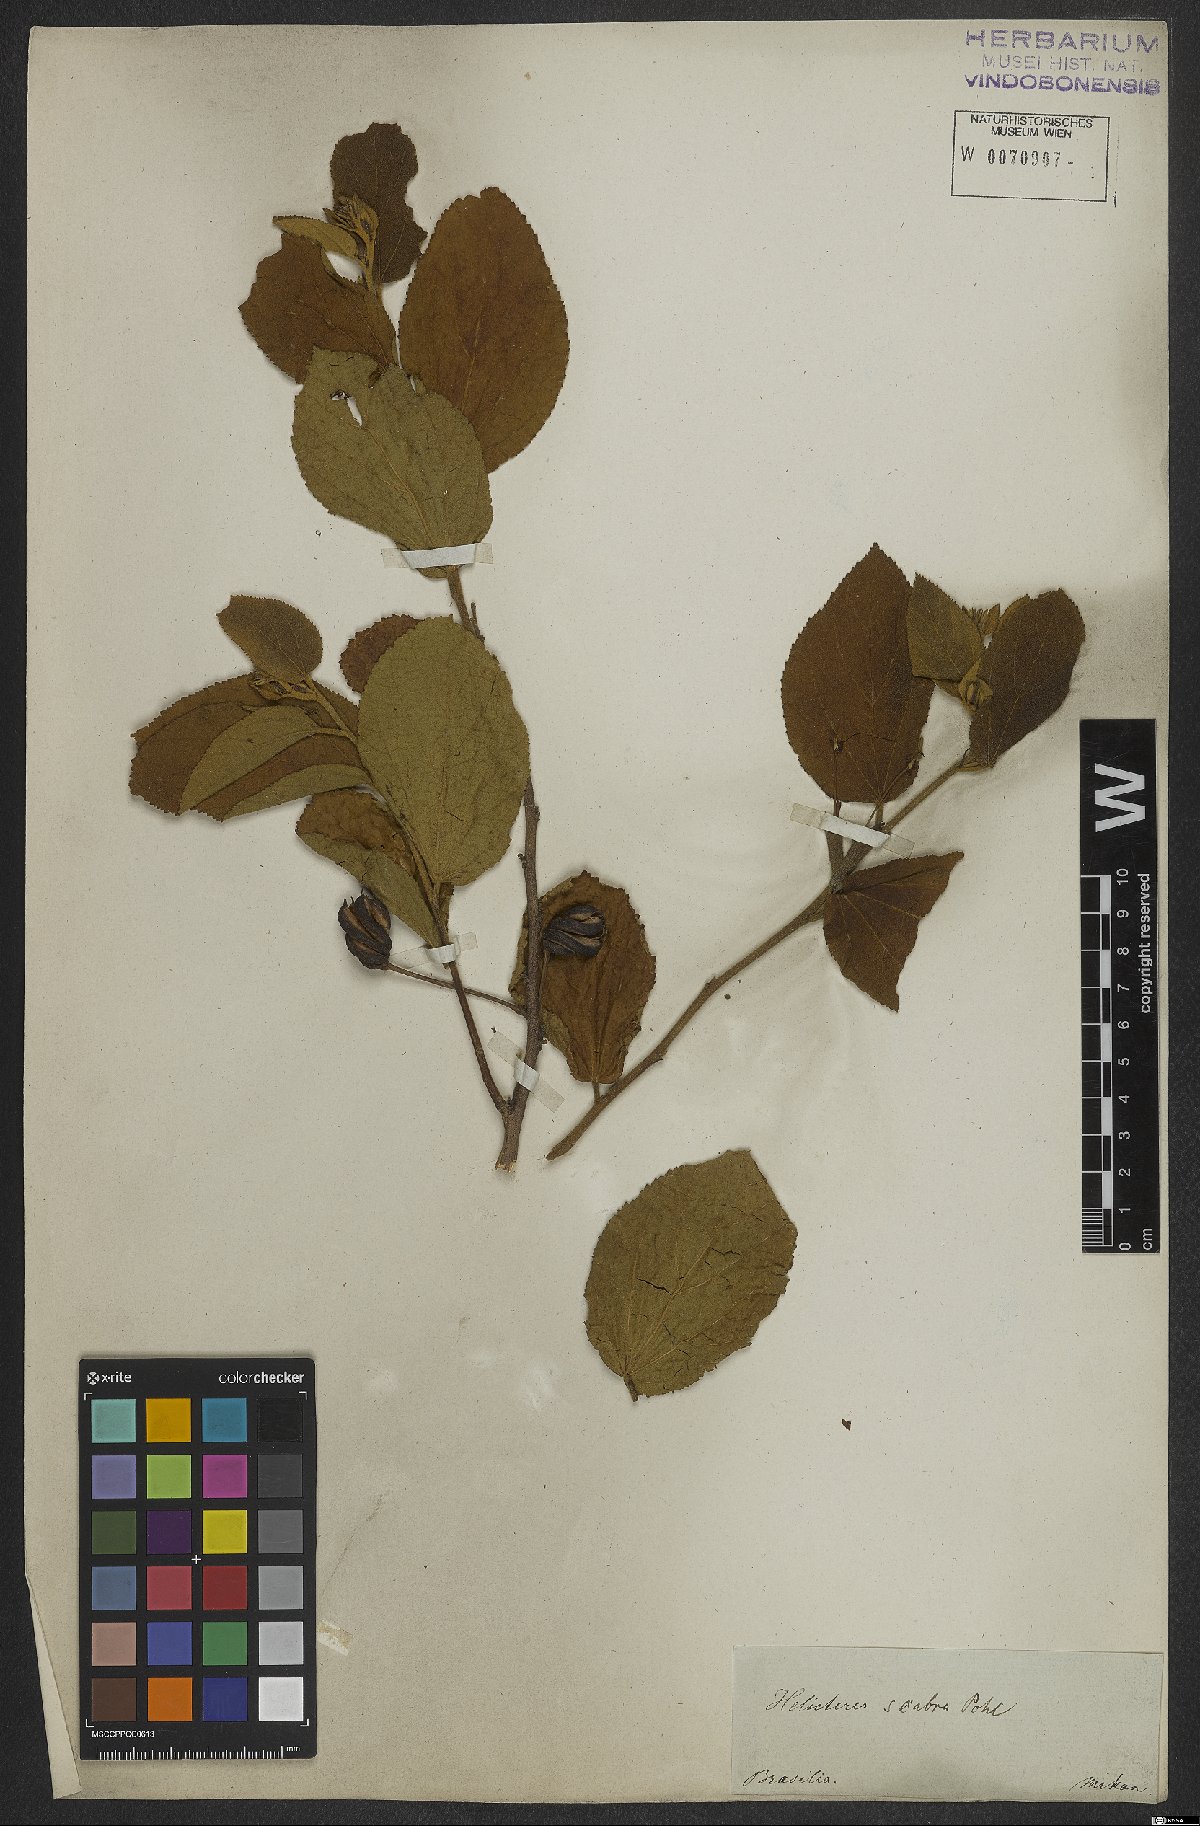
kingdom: Plantae
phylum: Tracheophyta
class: Magnoliopsida
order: Malvales
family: Malvaceae
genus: Helicteres
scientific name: Helicteres
